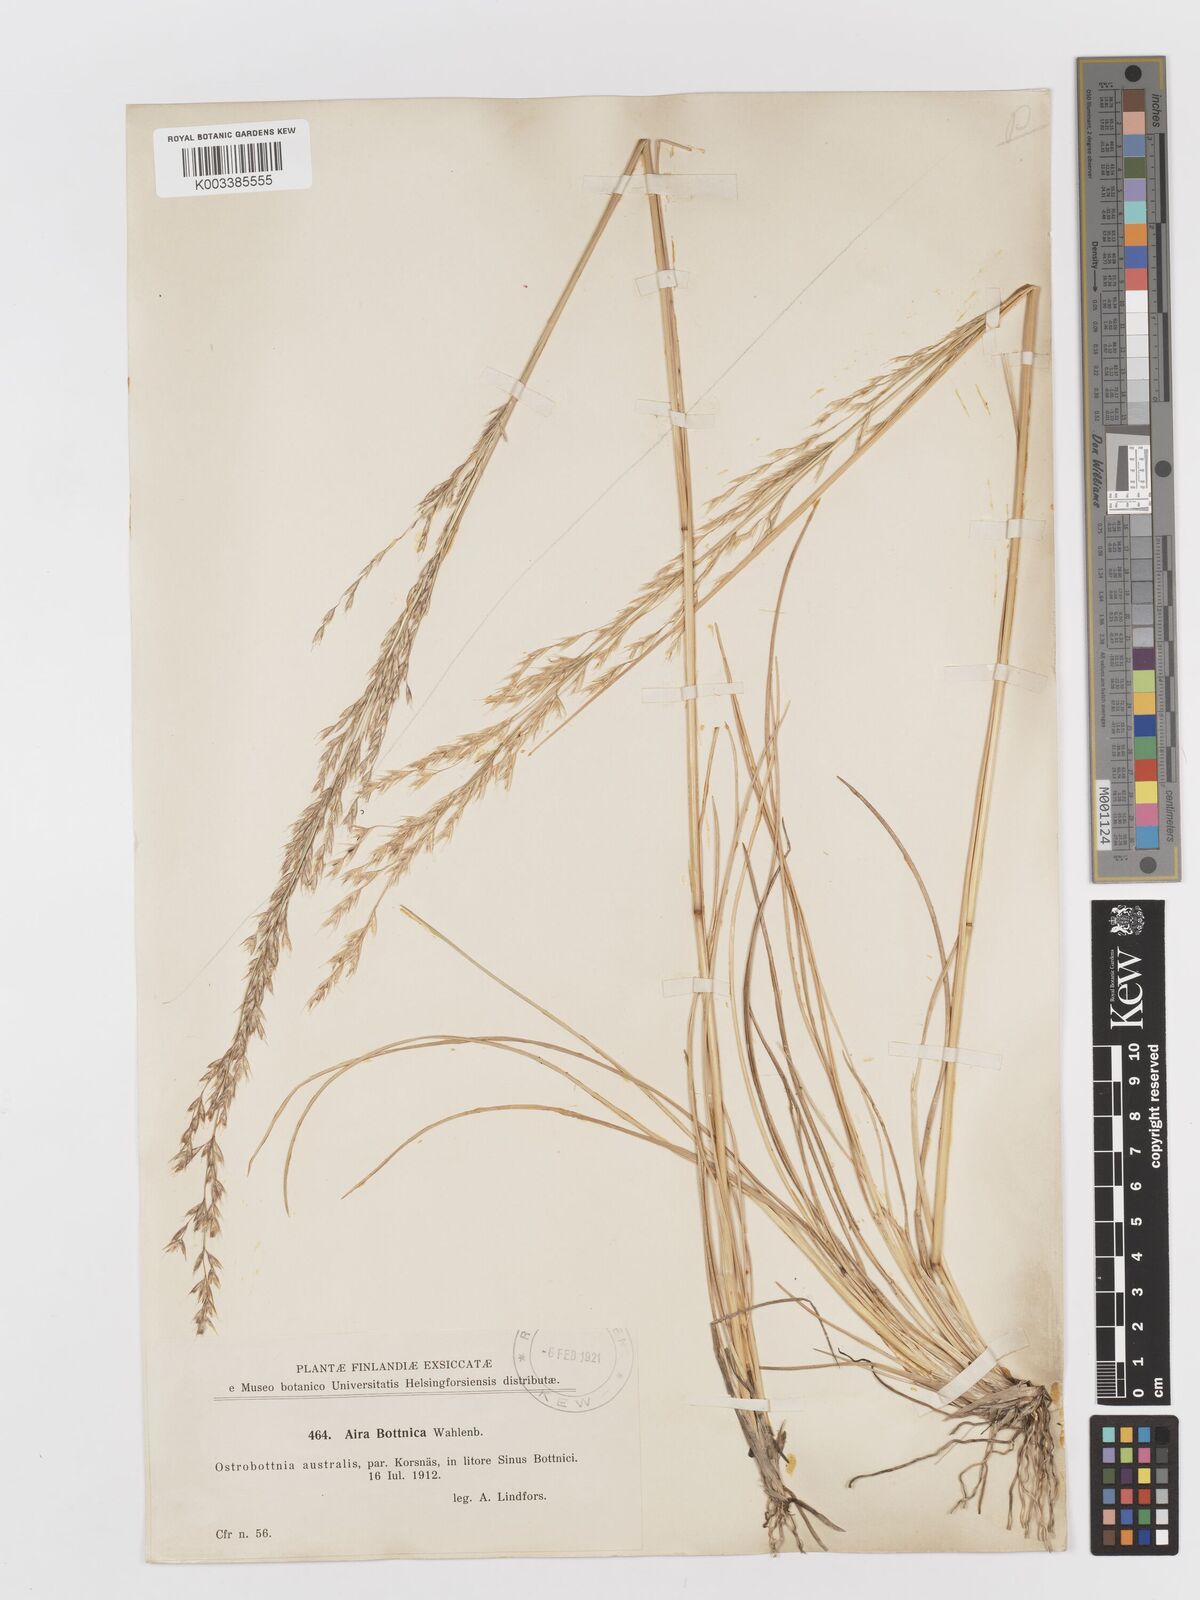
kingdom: Plantae
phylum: Tracheophyta
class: Liliopsida
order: Poales
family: Poaceae
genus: Deschampsia
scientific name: Deschampsia cespitosa
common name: Tufted hair-grass
